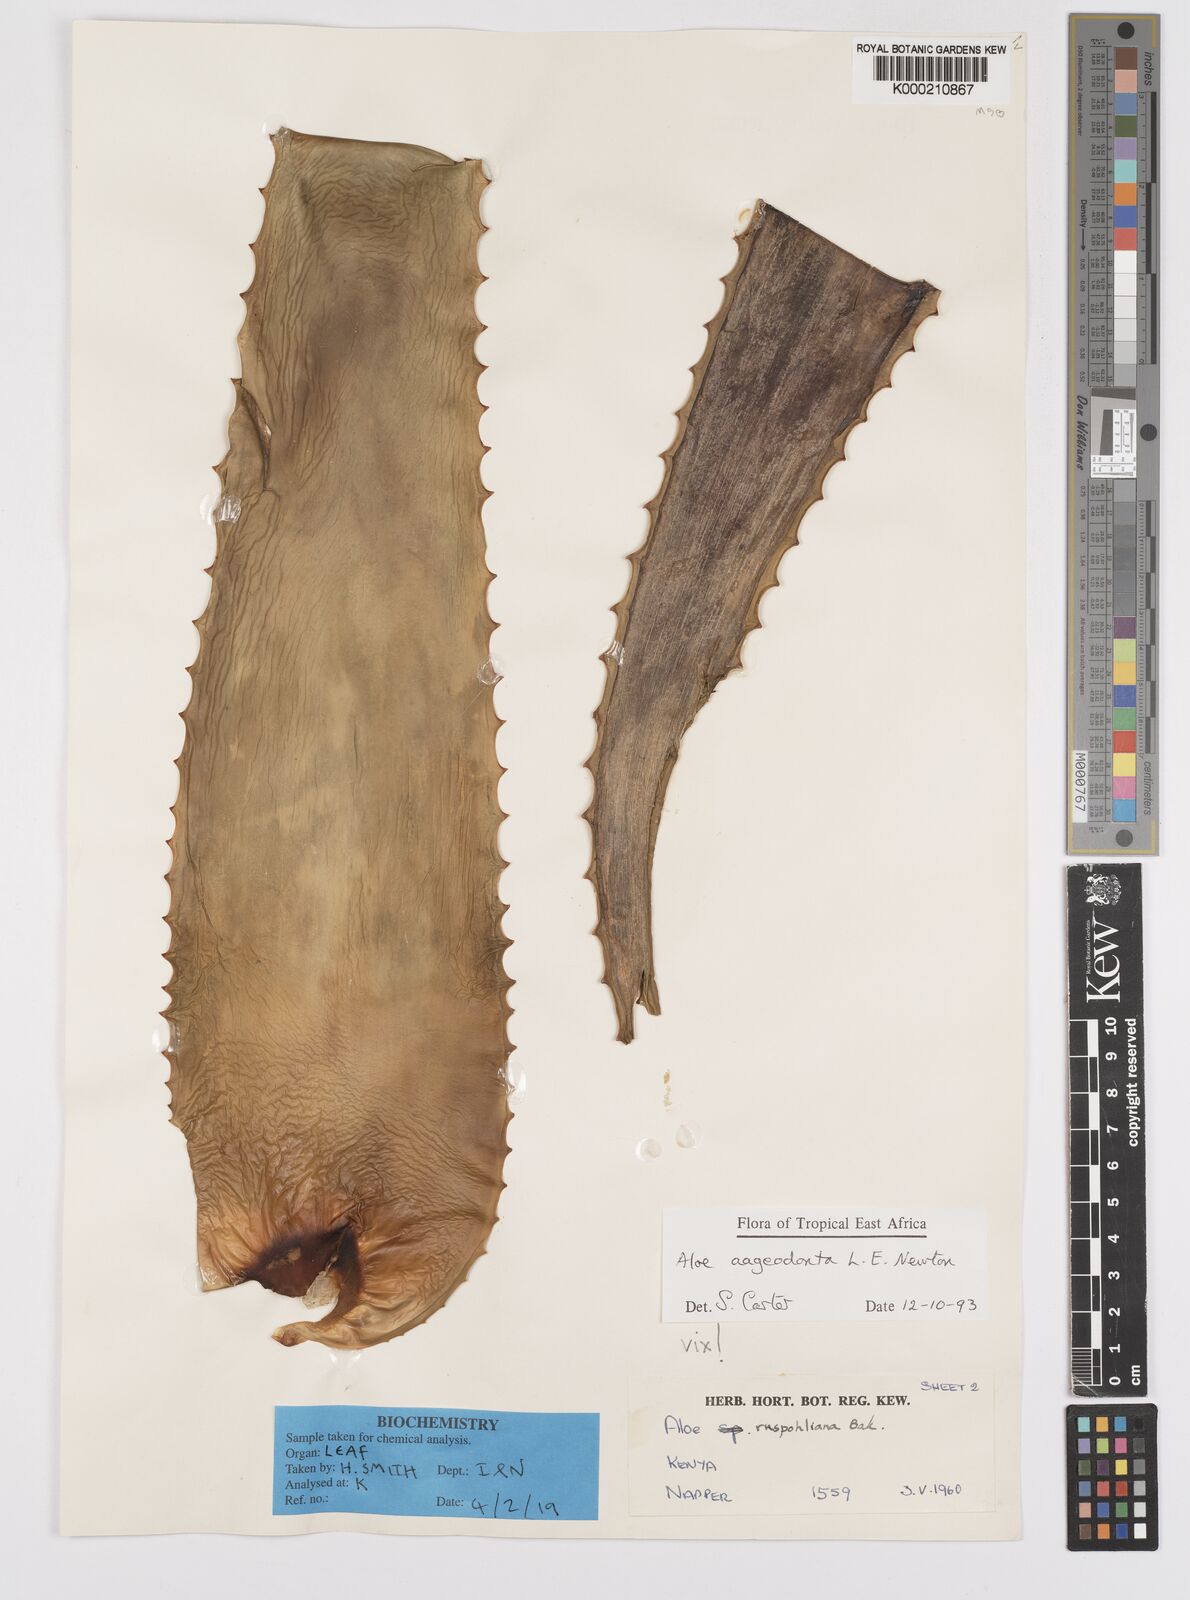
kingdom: Plantae
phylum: Tracheophyta
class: Liliopsida
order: Asparagales
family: Asphodelaceae
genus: Aloe
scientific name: Aloe aageodonta
